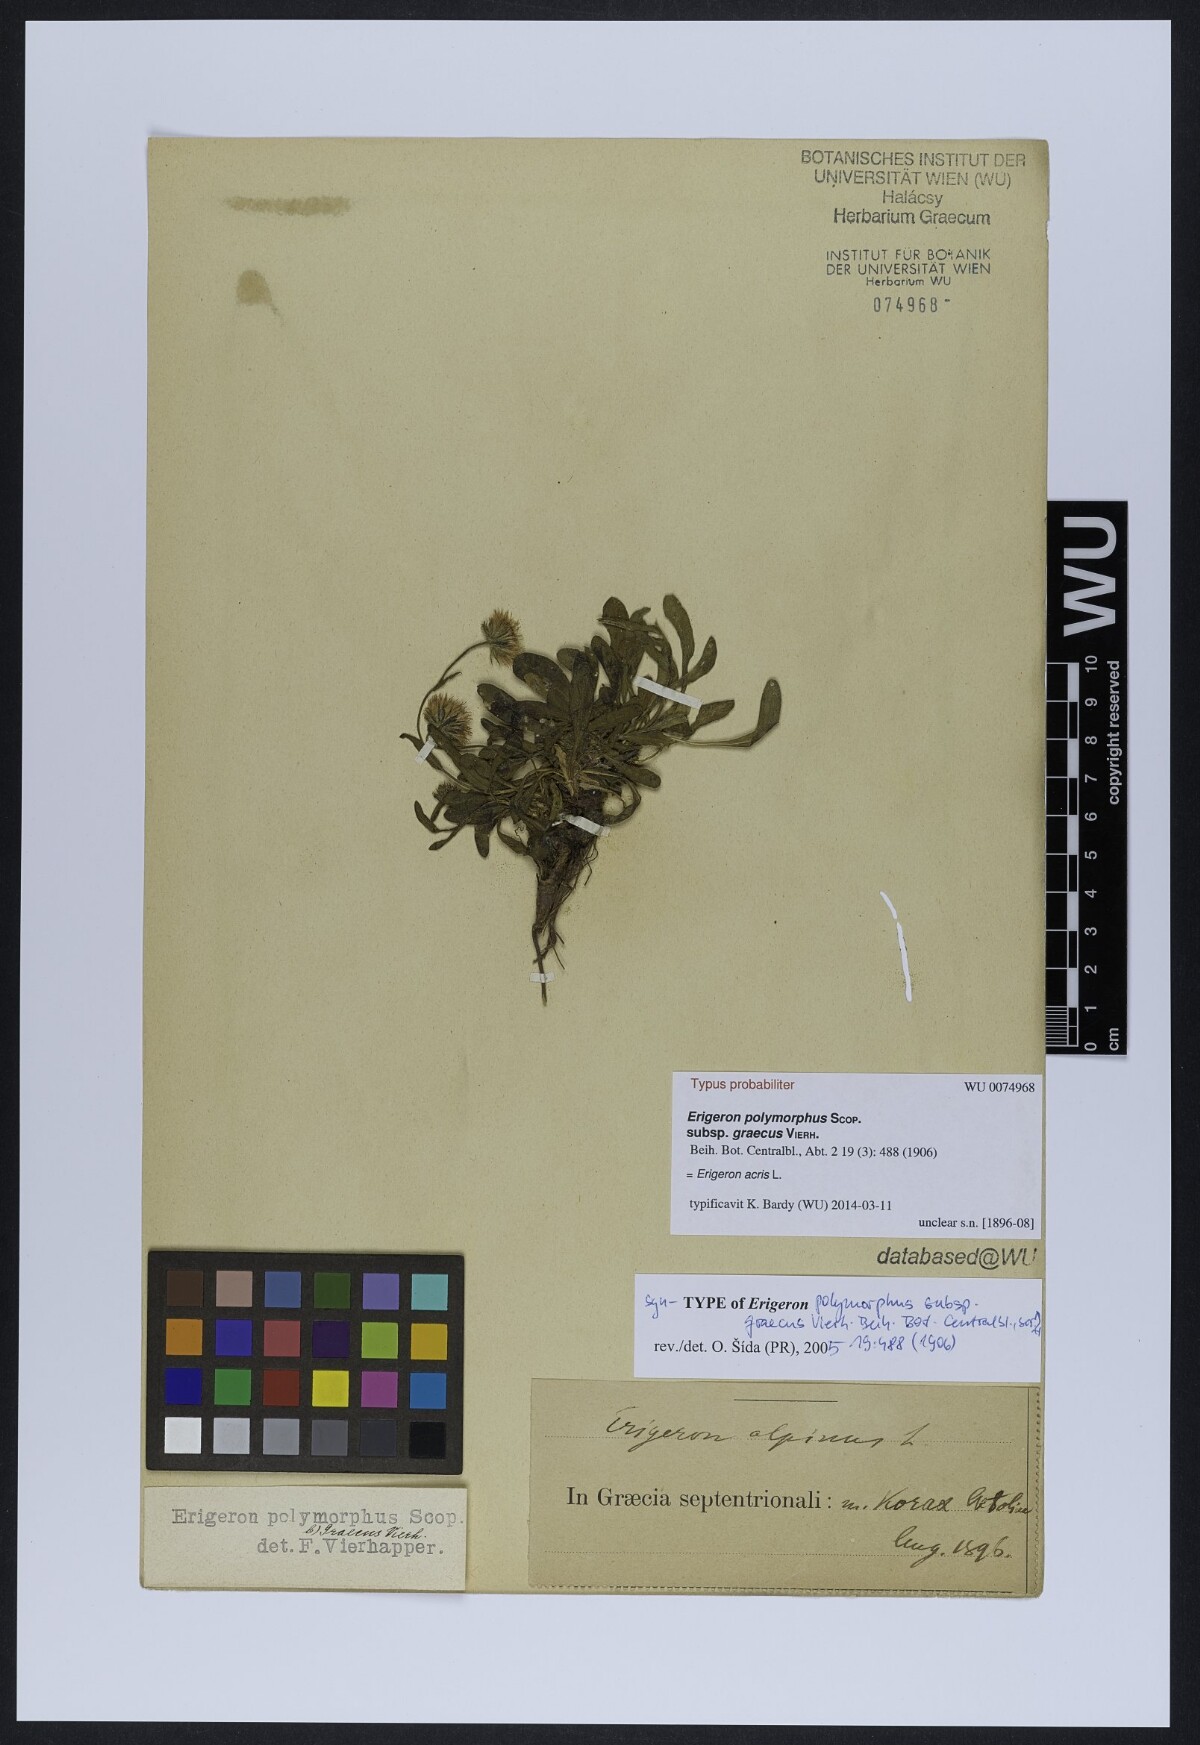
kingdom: Plantae
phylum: Tracheophyta
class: Magnoliopsida
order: Asterales
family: Asteraceae
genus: Erigeron
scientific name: Erigeron glabratus
